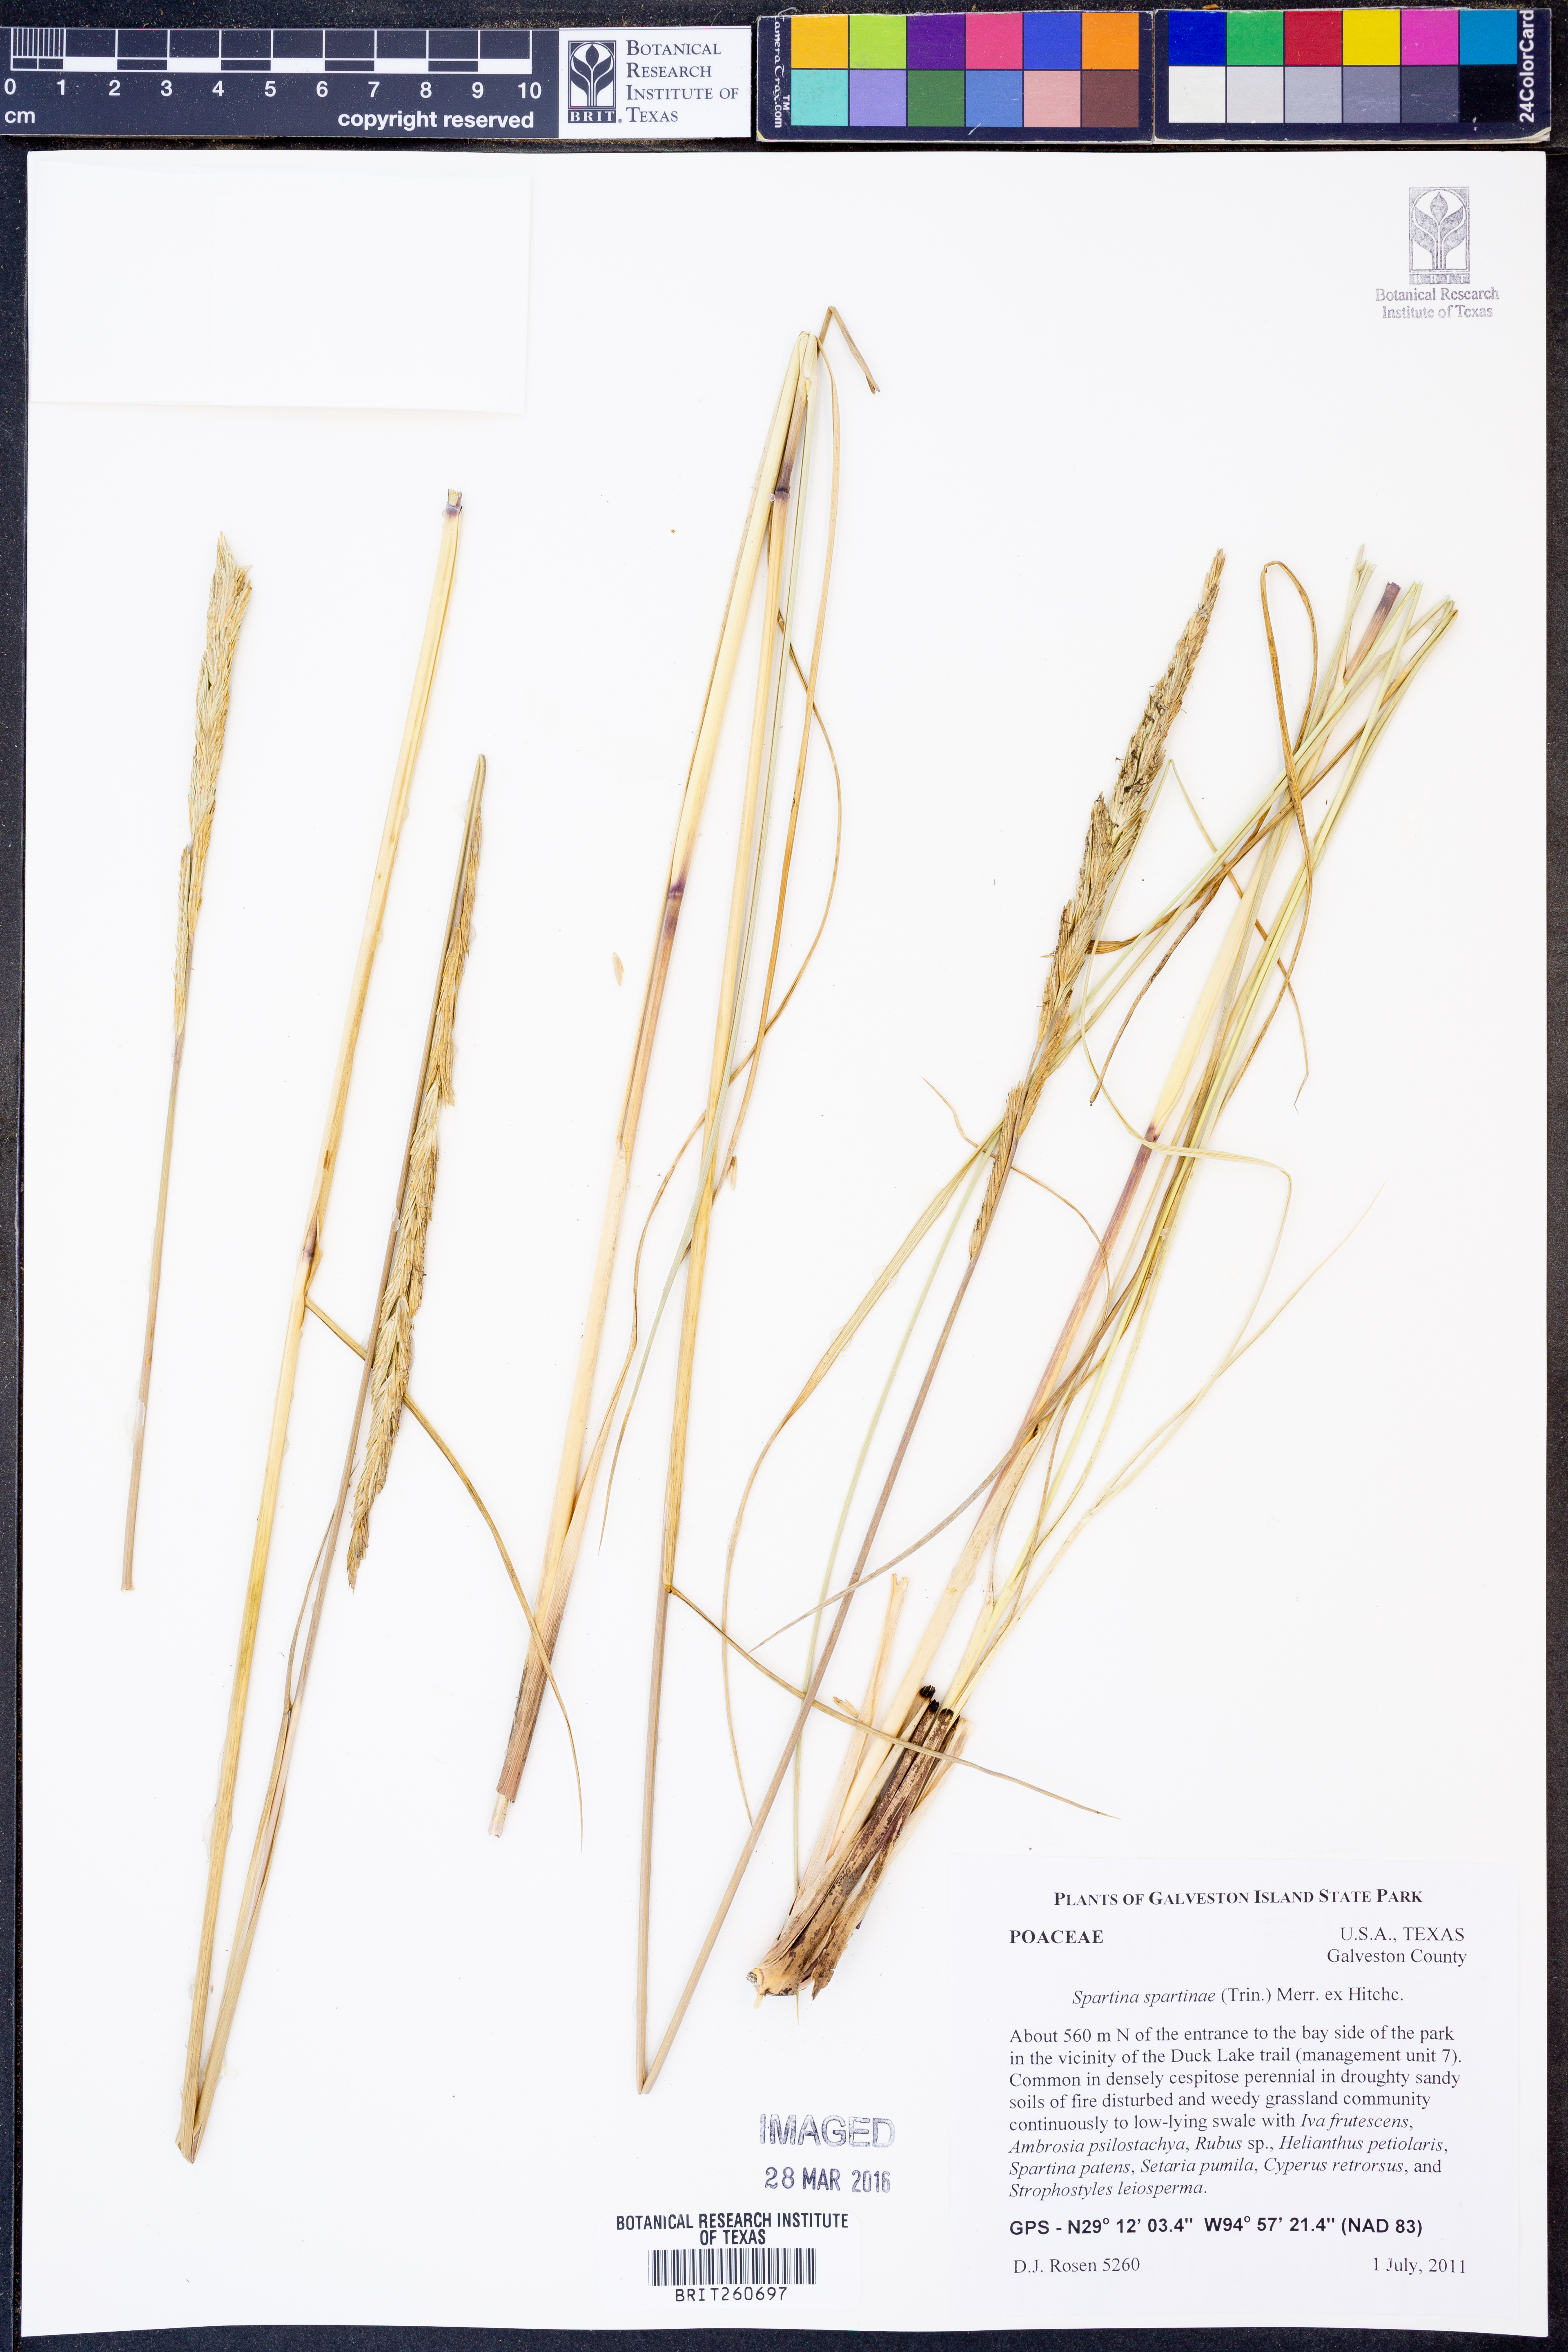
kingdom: Plantae
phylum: Tracheophyta
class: Liliopsida
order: Poales
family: Poaceae
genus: Sporobolus
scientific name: Sporobolus spartinae
